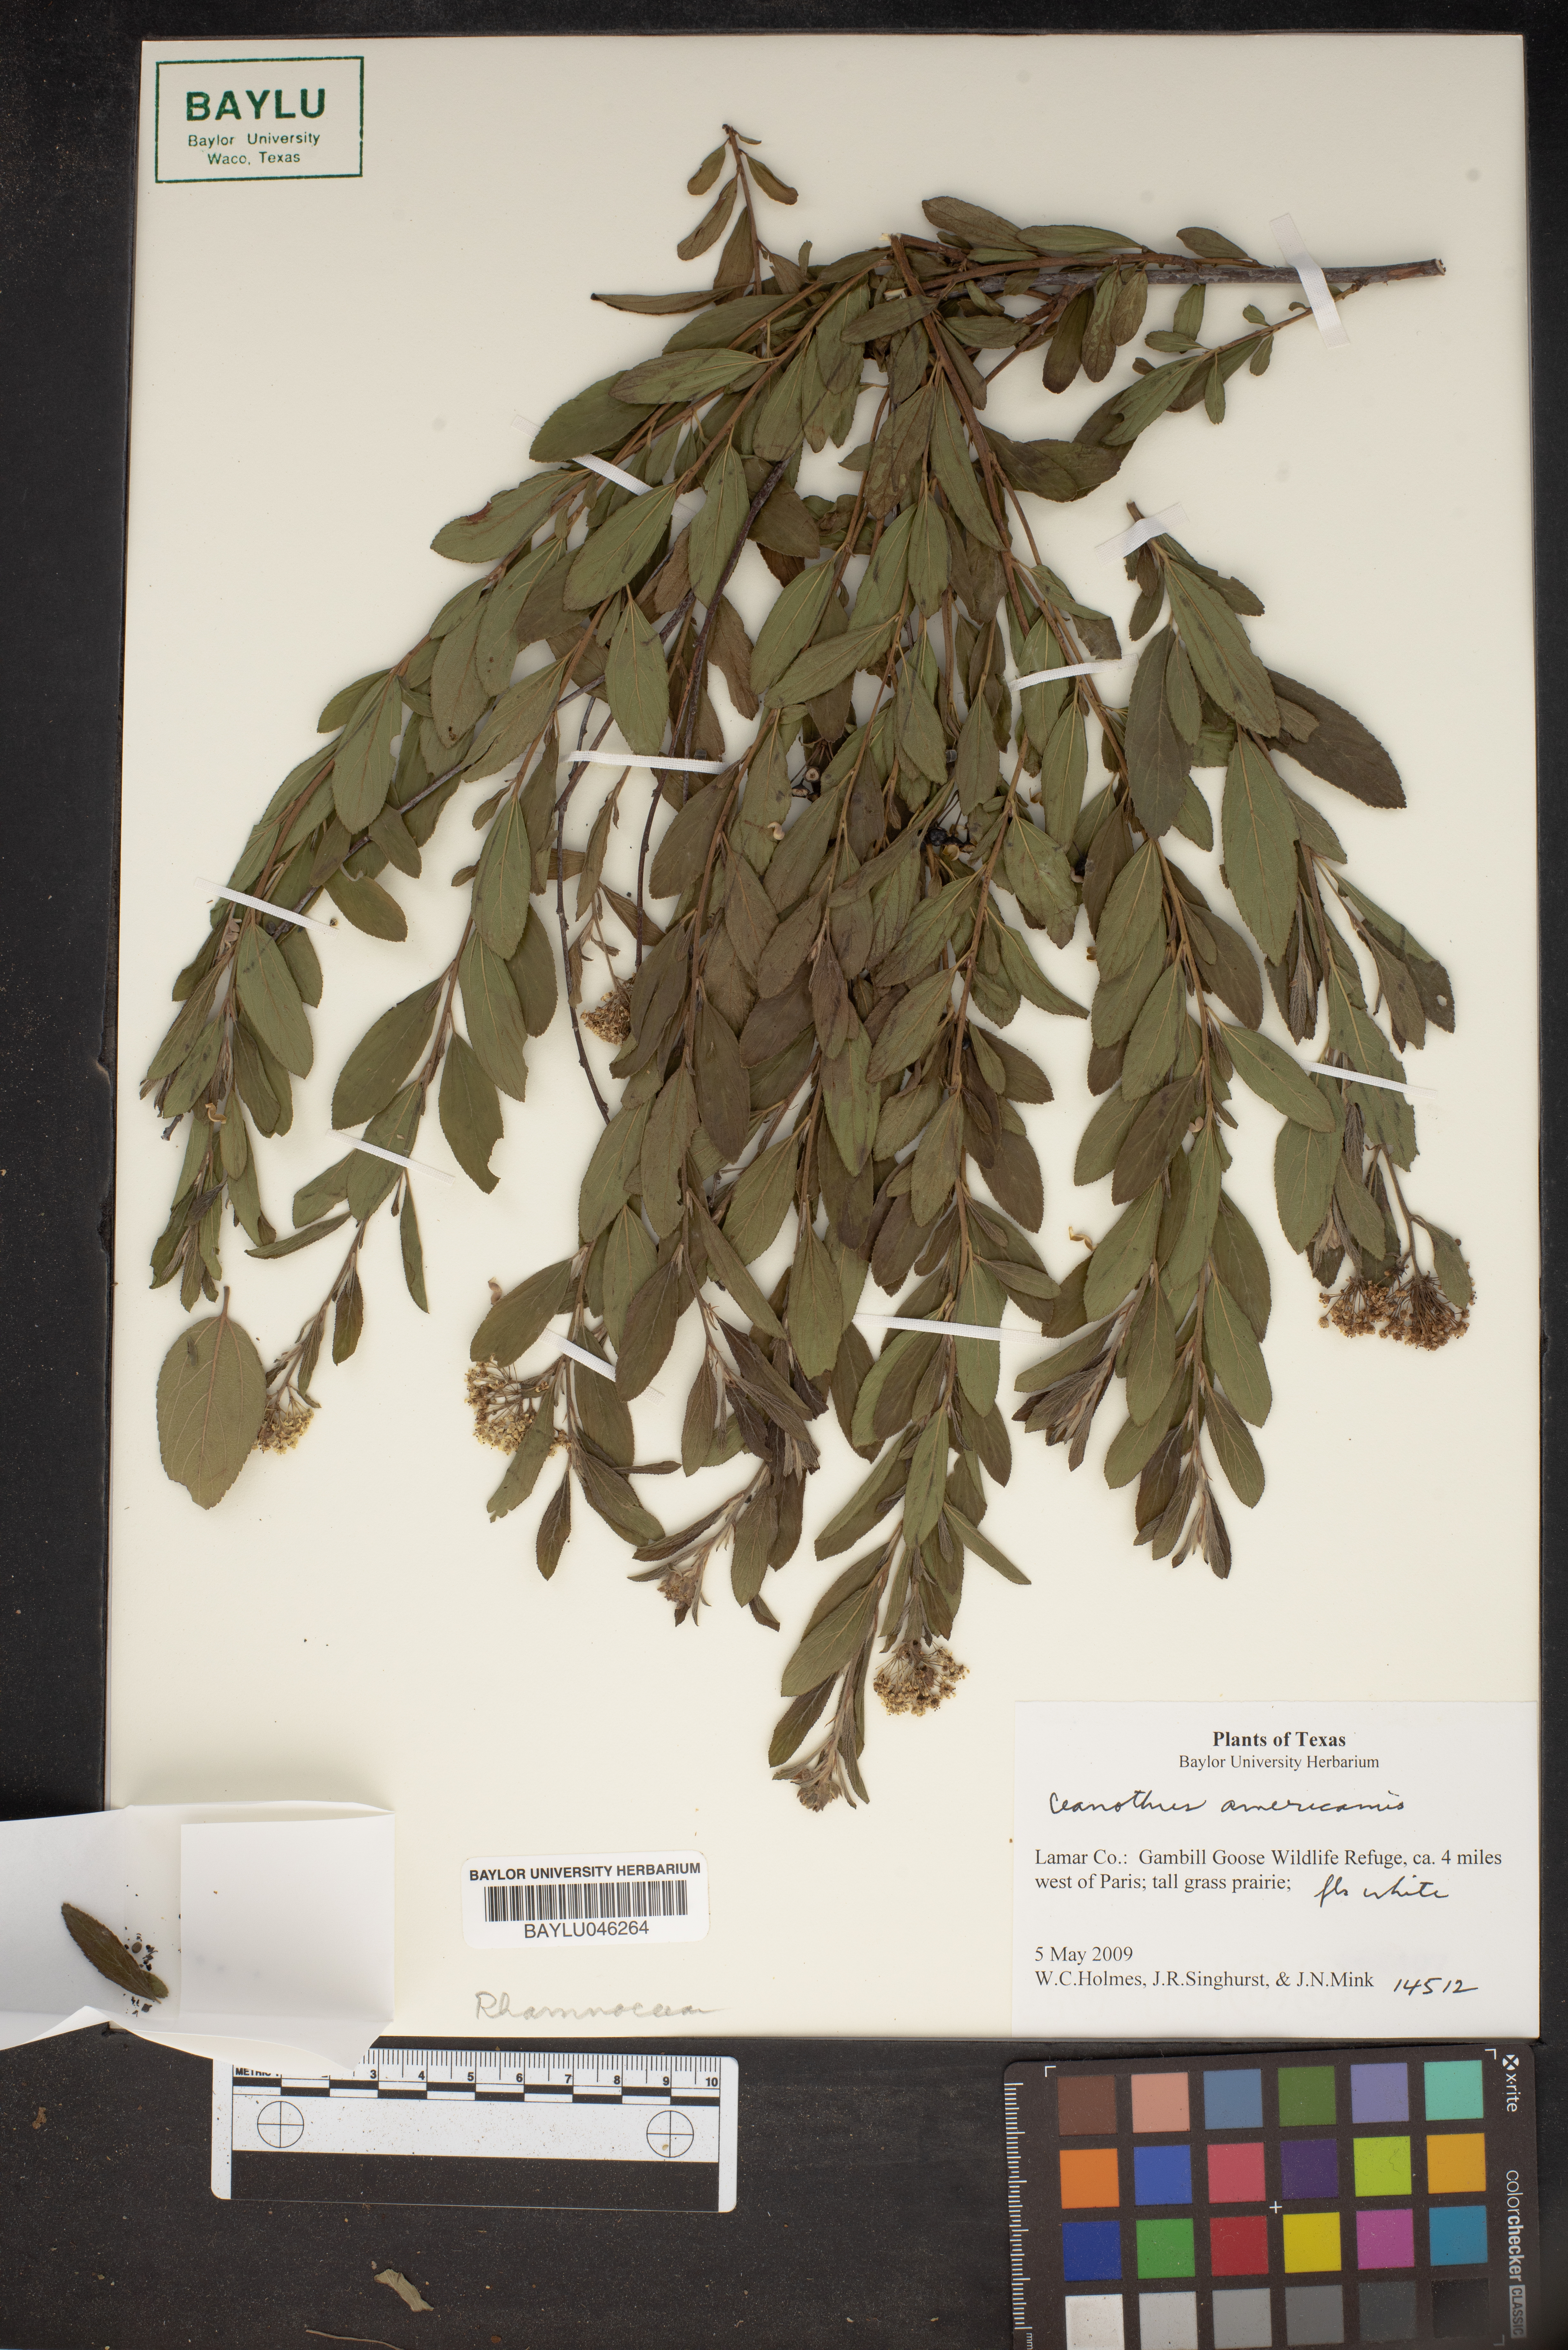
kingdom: Plantae
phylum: Tracheophyta
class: Magnoliopsida
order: Rosales
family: Rhamnaceae
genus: Ceanothus
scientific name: Ceanothus americanus
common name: Redroot
